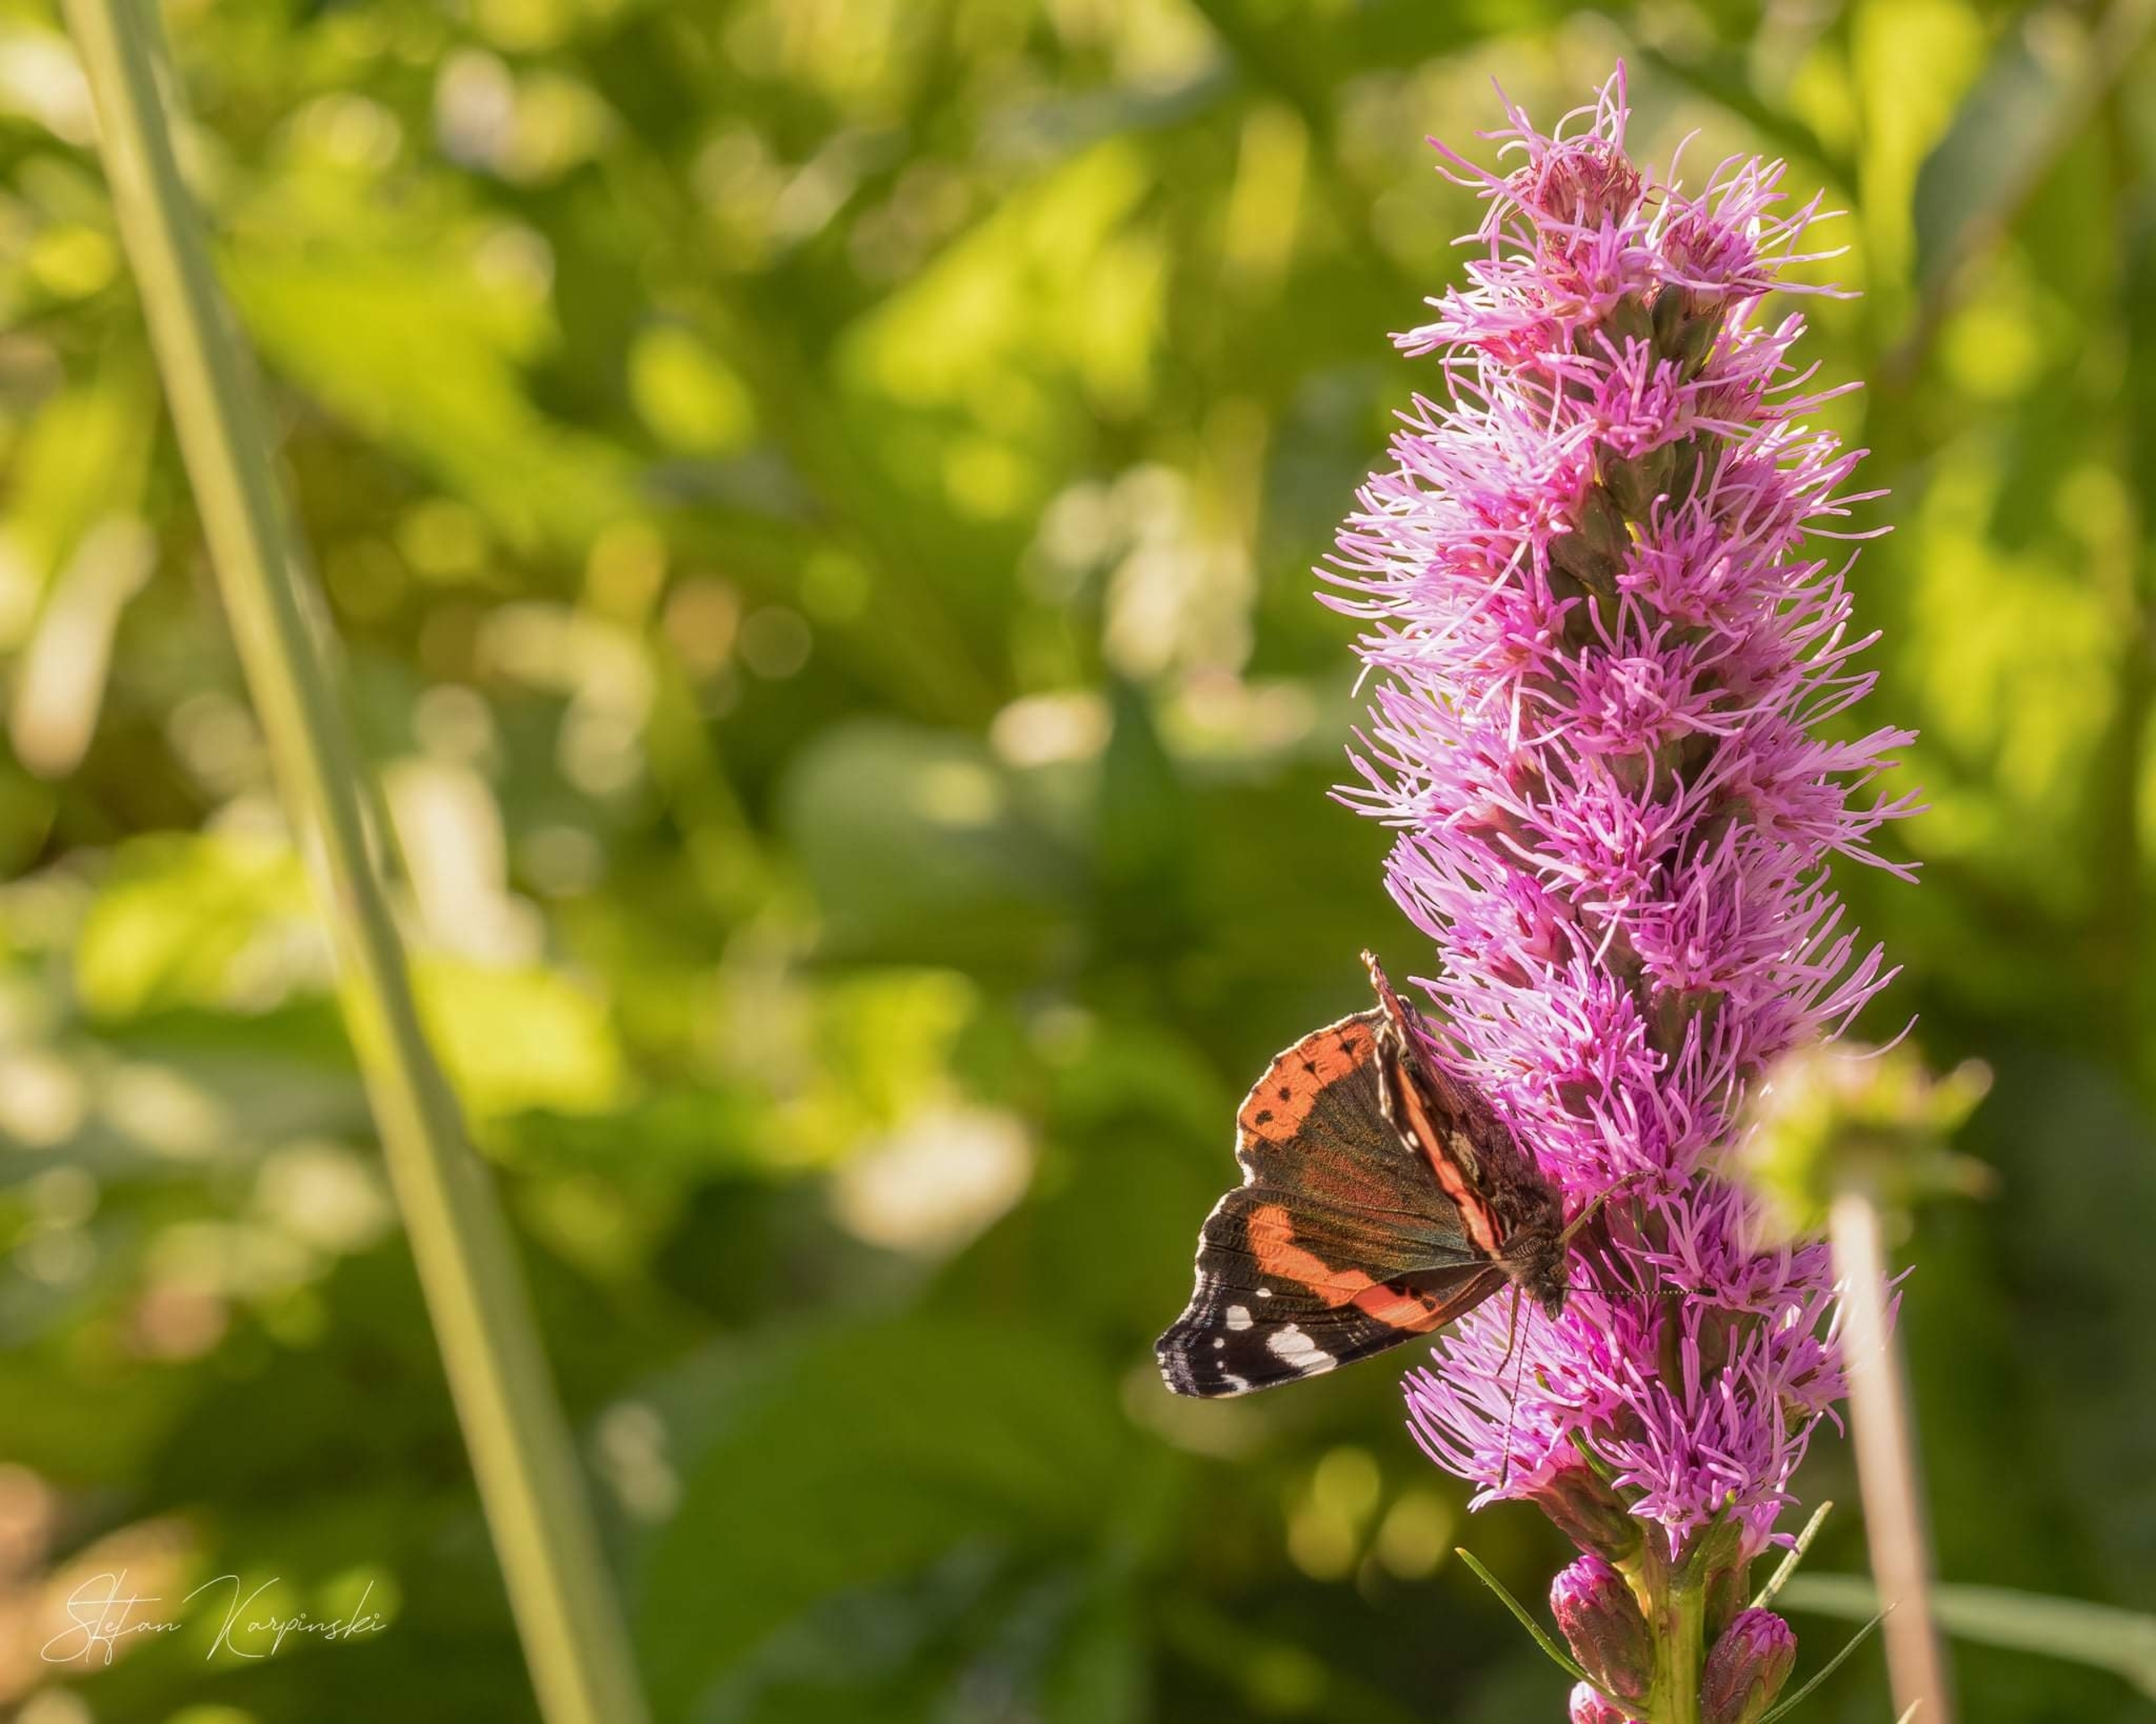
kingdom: Animalia
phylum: Arthropoda
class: Insecta
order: Lepidoptera
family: Nymphalidae
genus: Vanessa
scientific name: Vanessa atalanta
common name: Admiral
